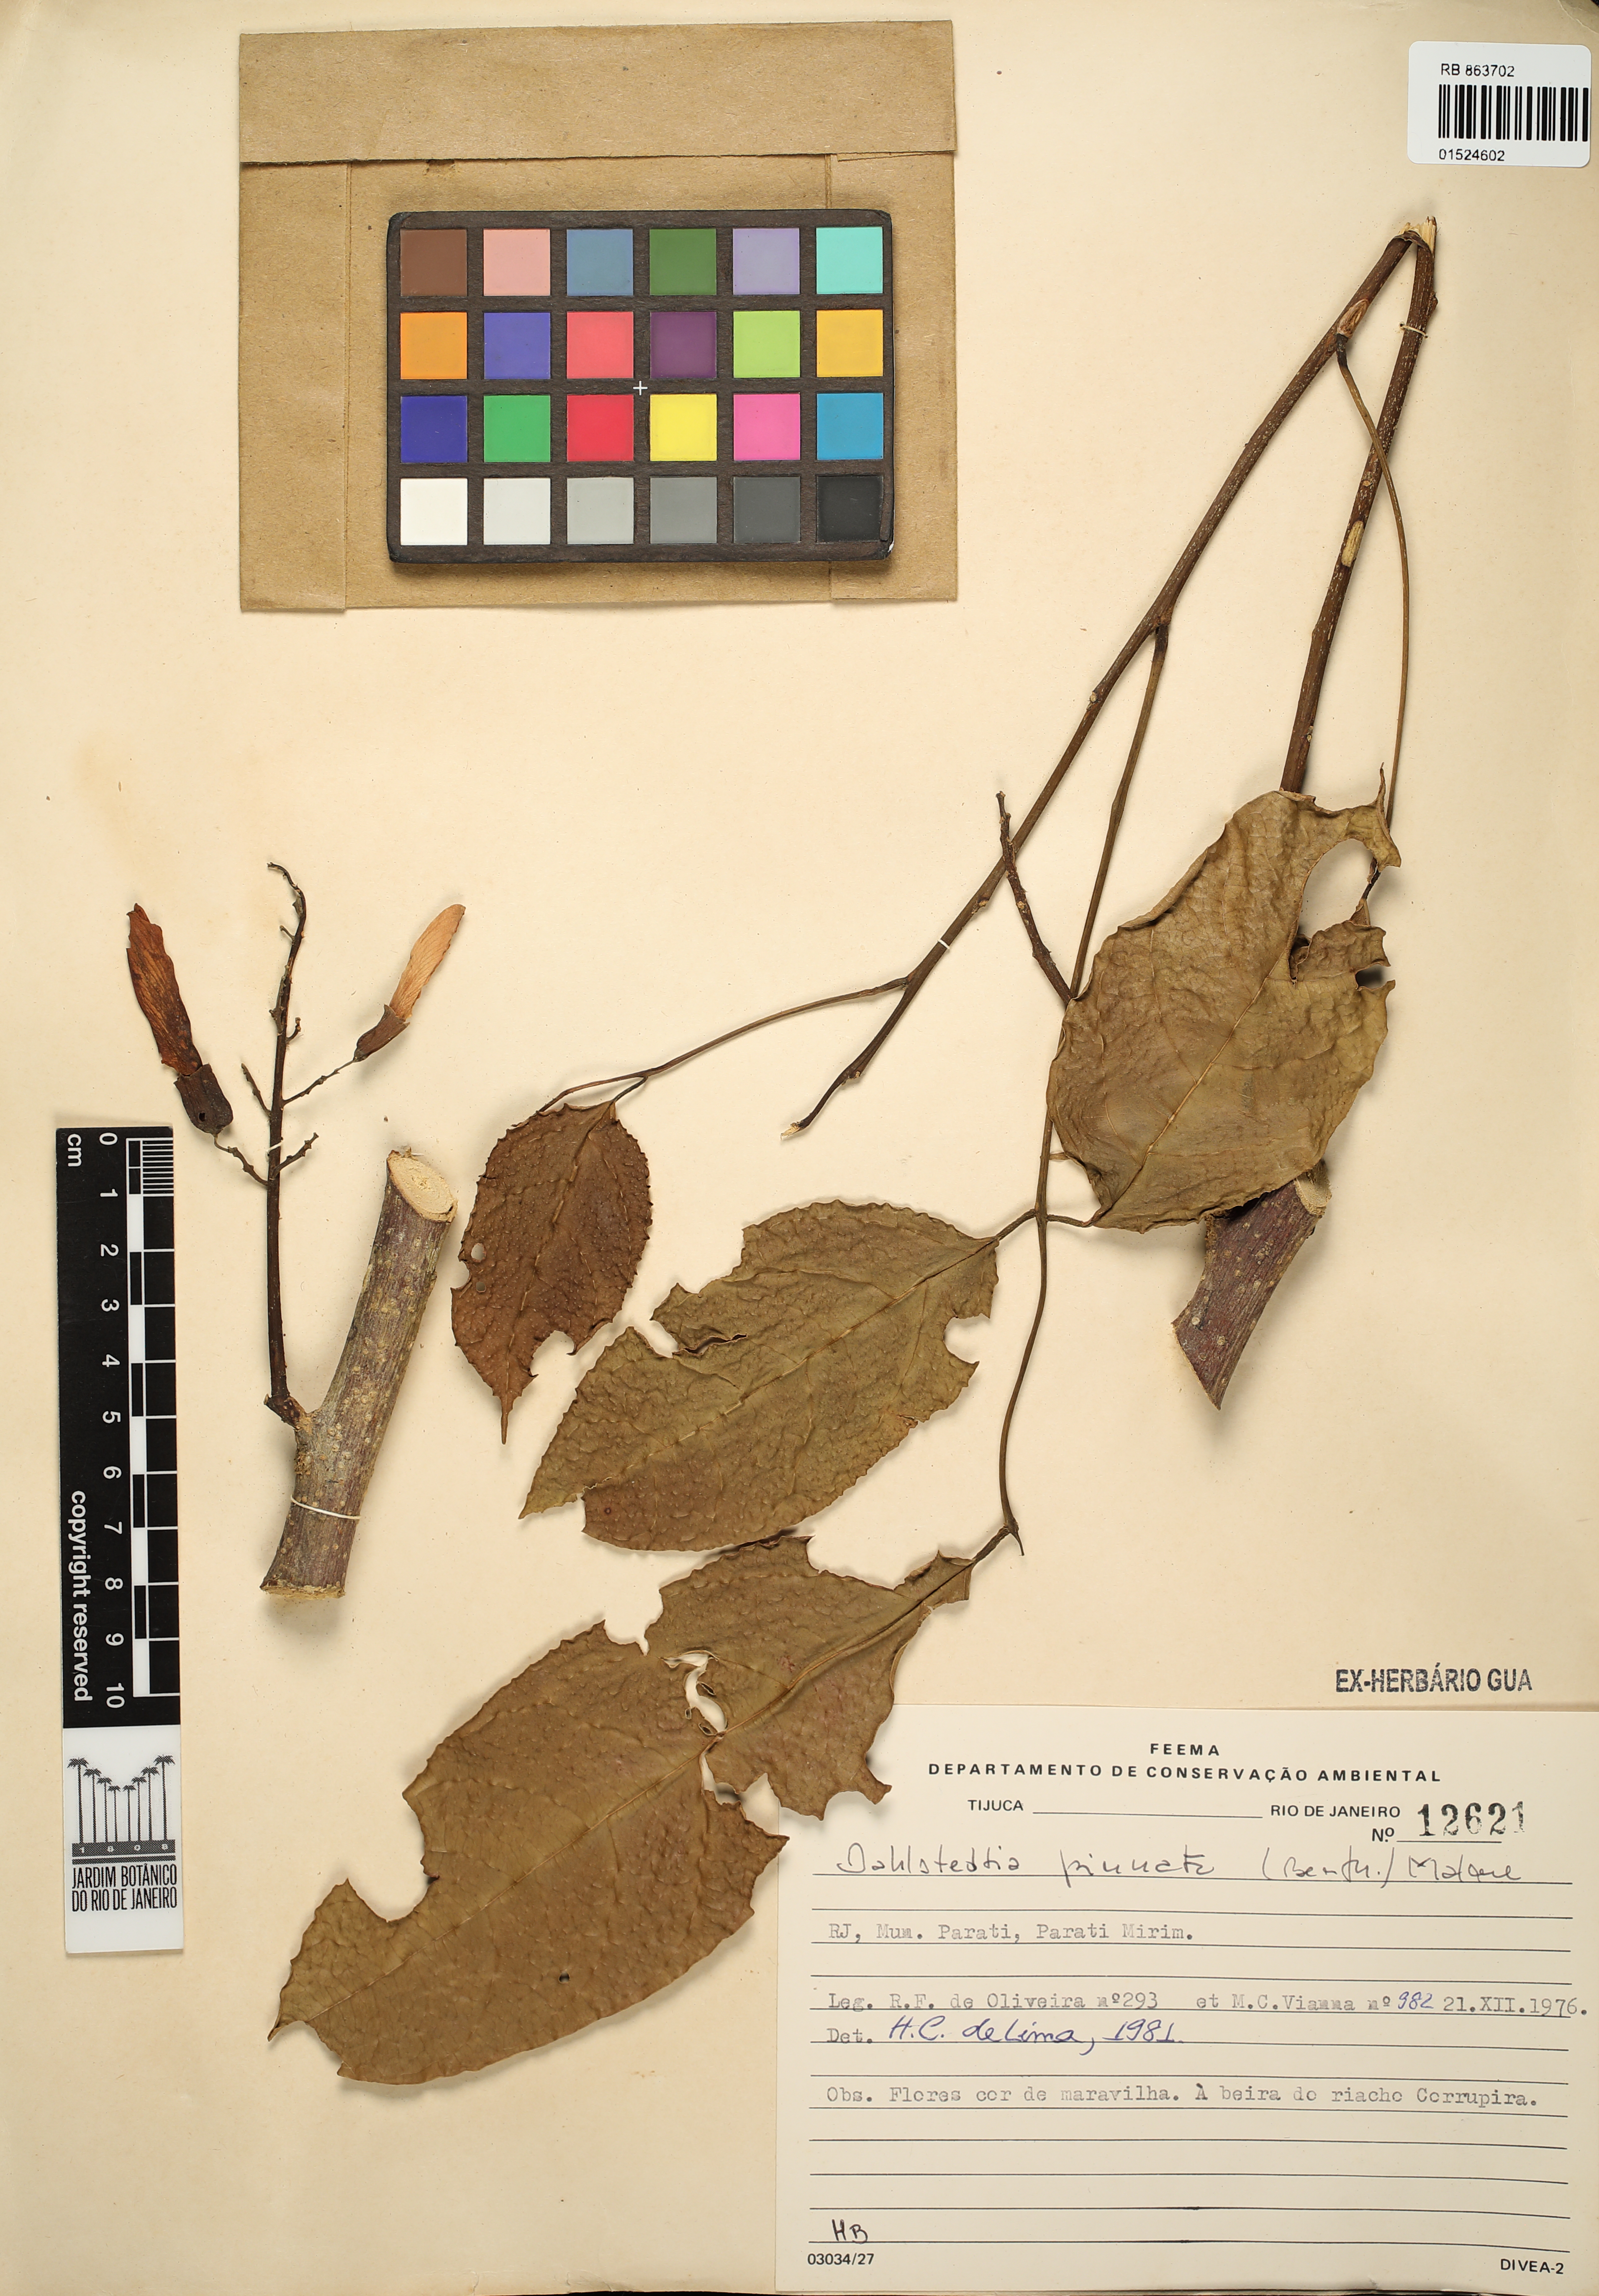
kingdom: Plantae
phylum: Tracheophyta
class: Magnoliopsida
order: Fabales
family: Fabaceae
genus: Dahlstedtia
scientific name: Dahlstedtia pinnata
